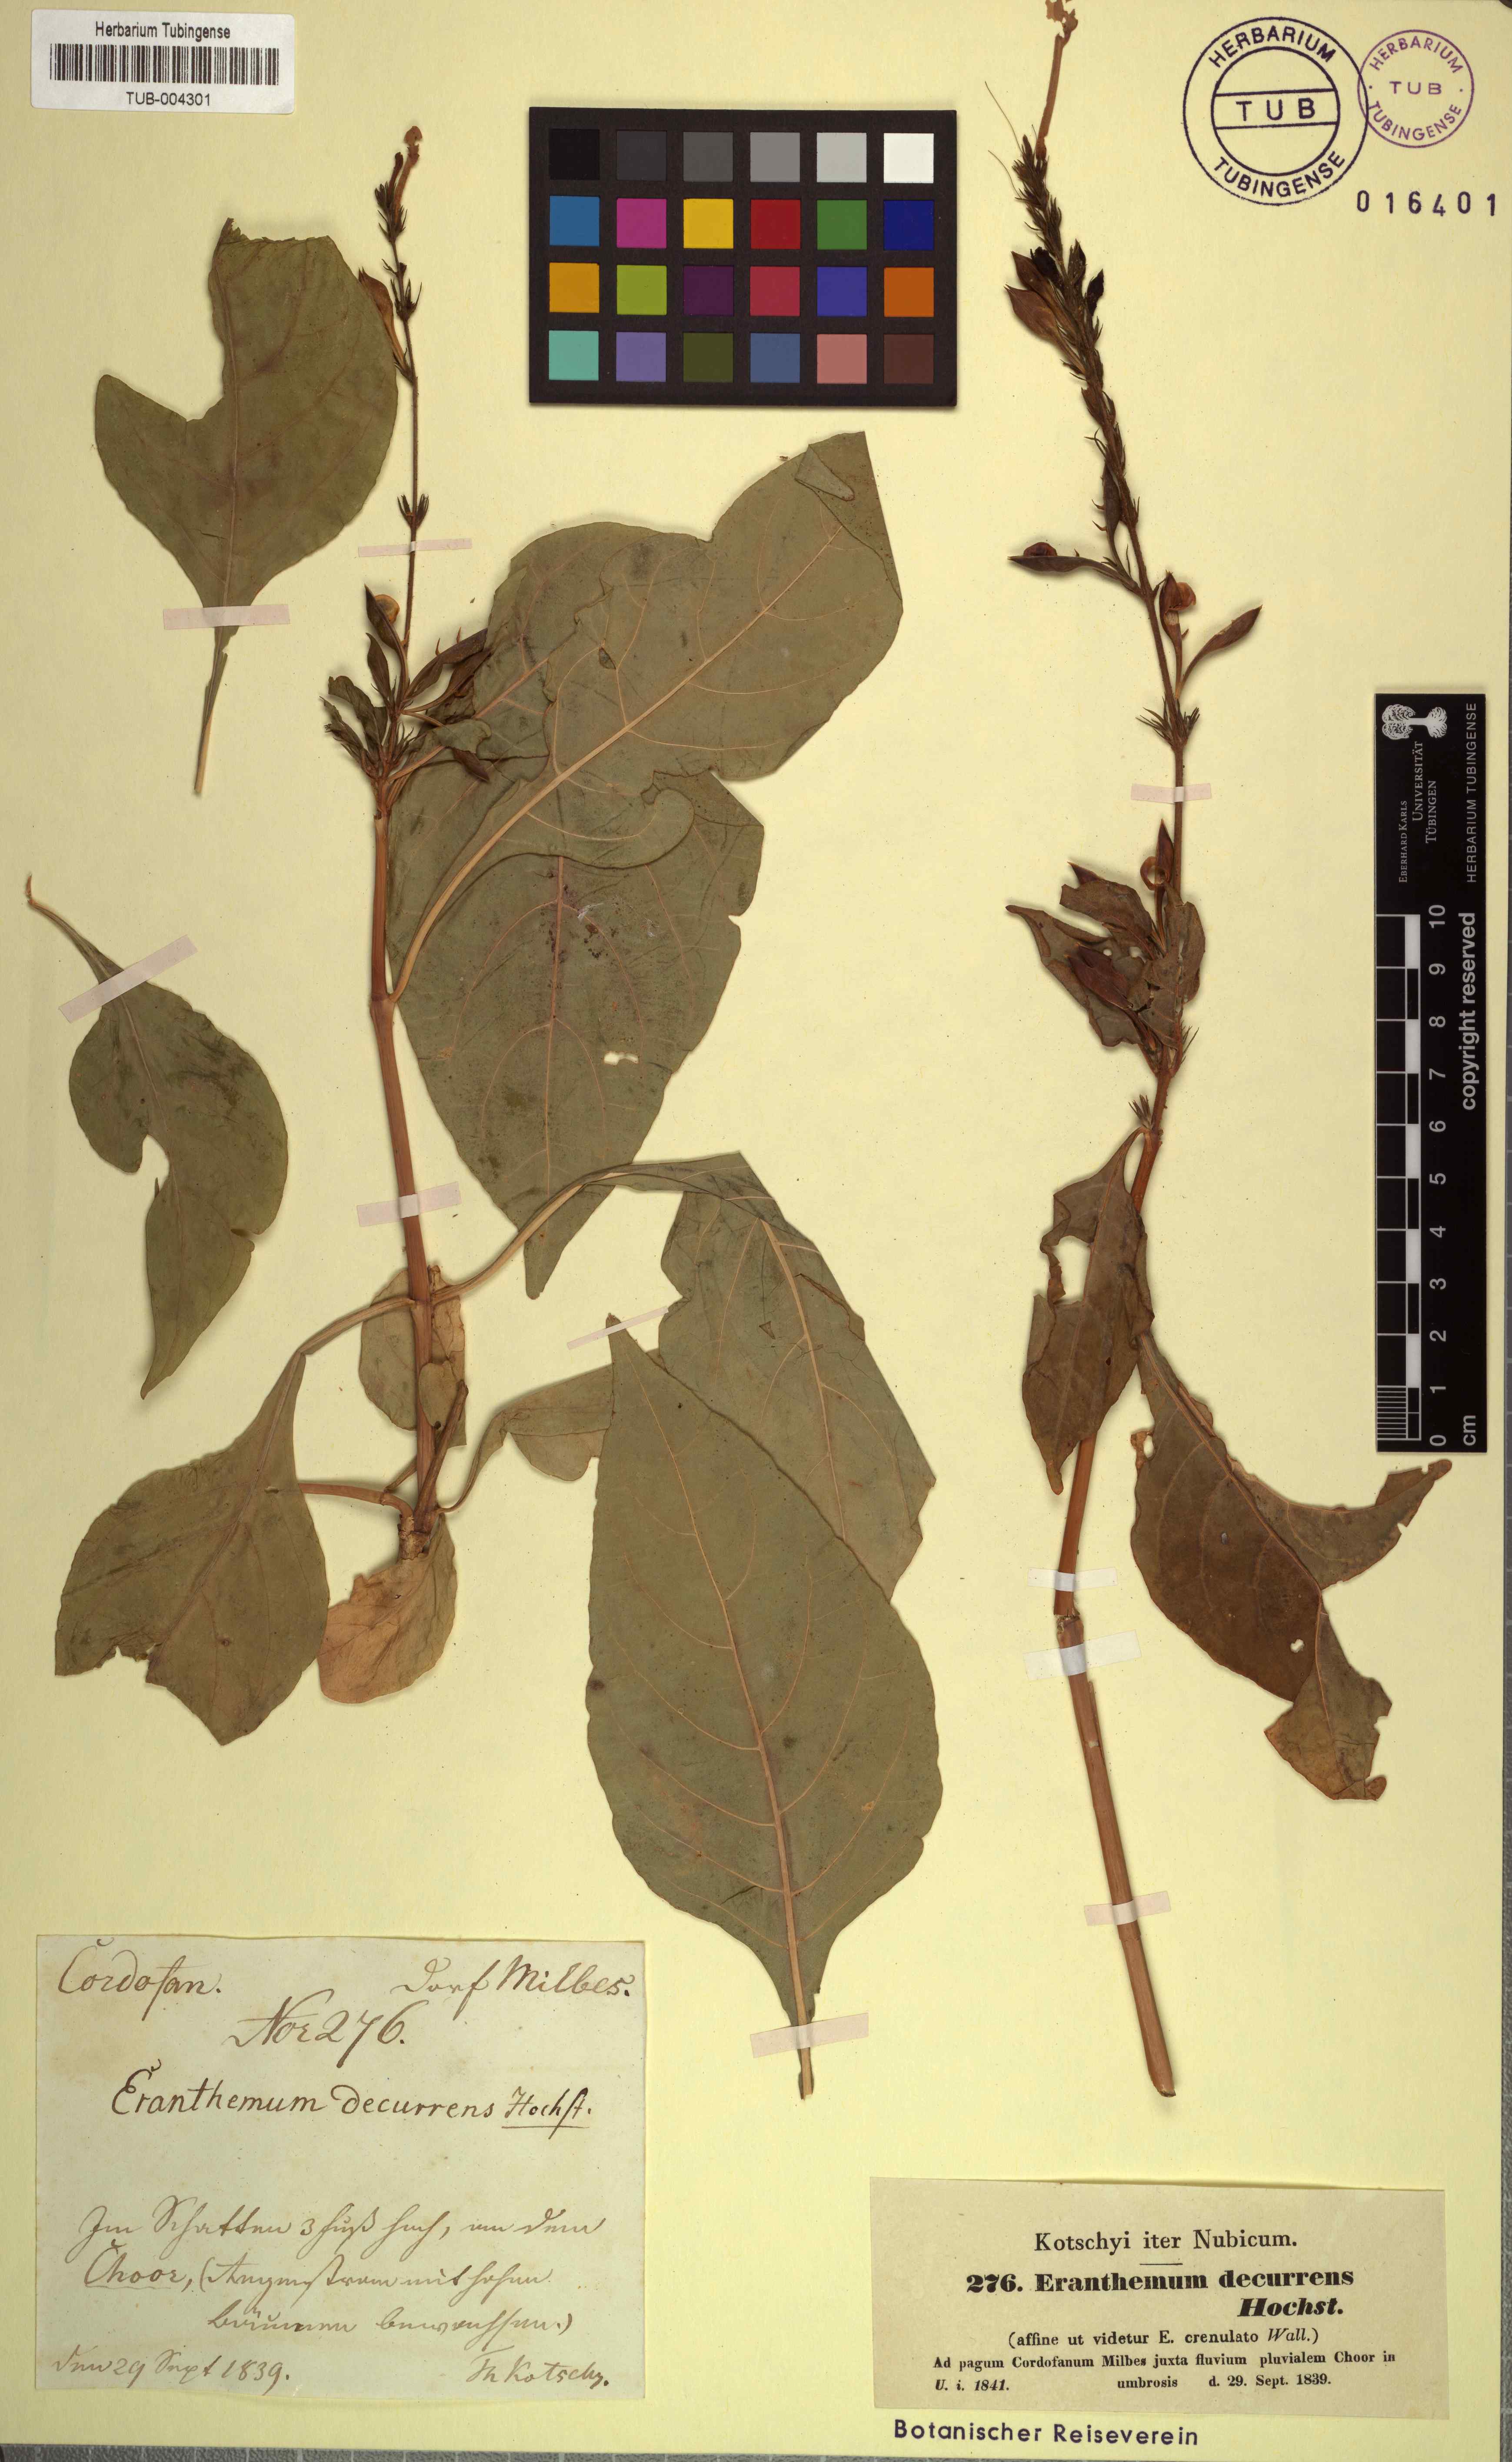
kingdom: Plantae
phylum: Tracheophyta
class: Magnoliopsida
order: Lamiales
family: Acanthaceae
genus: Ruspolia
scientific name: Ruspolia decurrens
